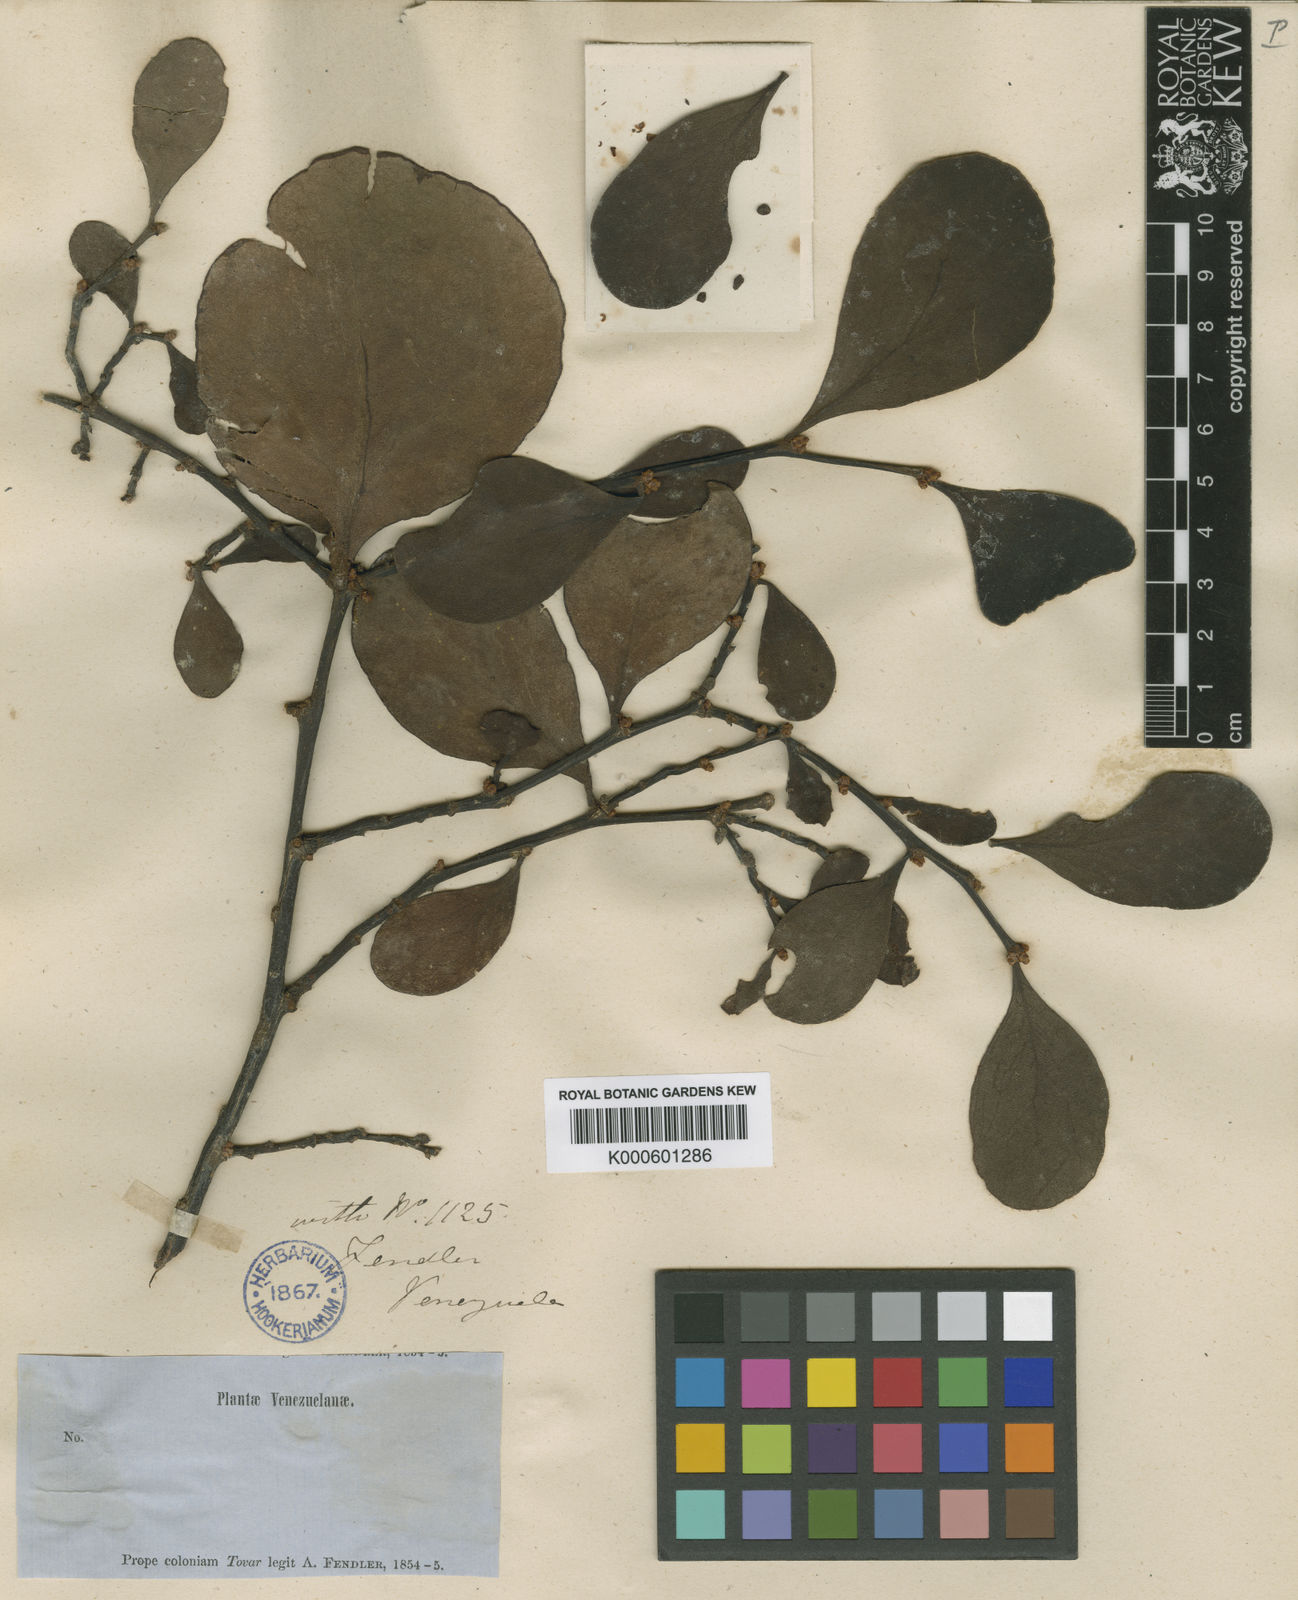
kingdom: Plantae
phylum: Tracheophyta
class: Magnoliopsida
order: Santalales
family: Santalaceae
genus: Antidaphne
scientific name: Antidaphne viscoidea
